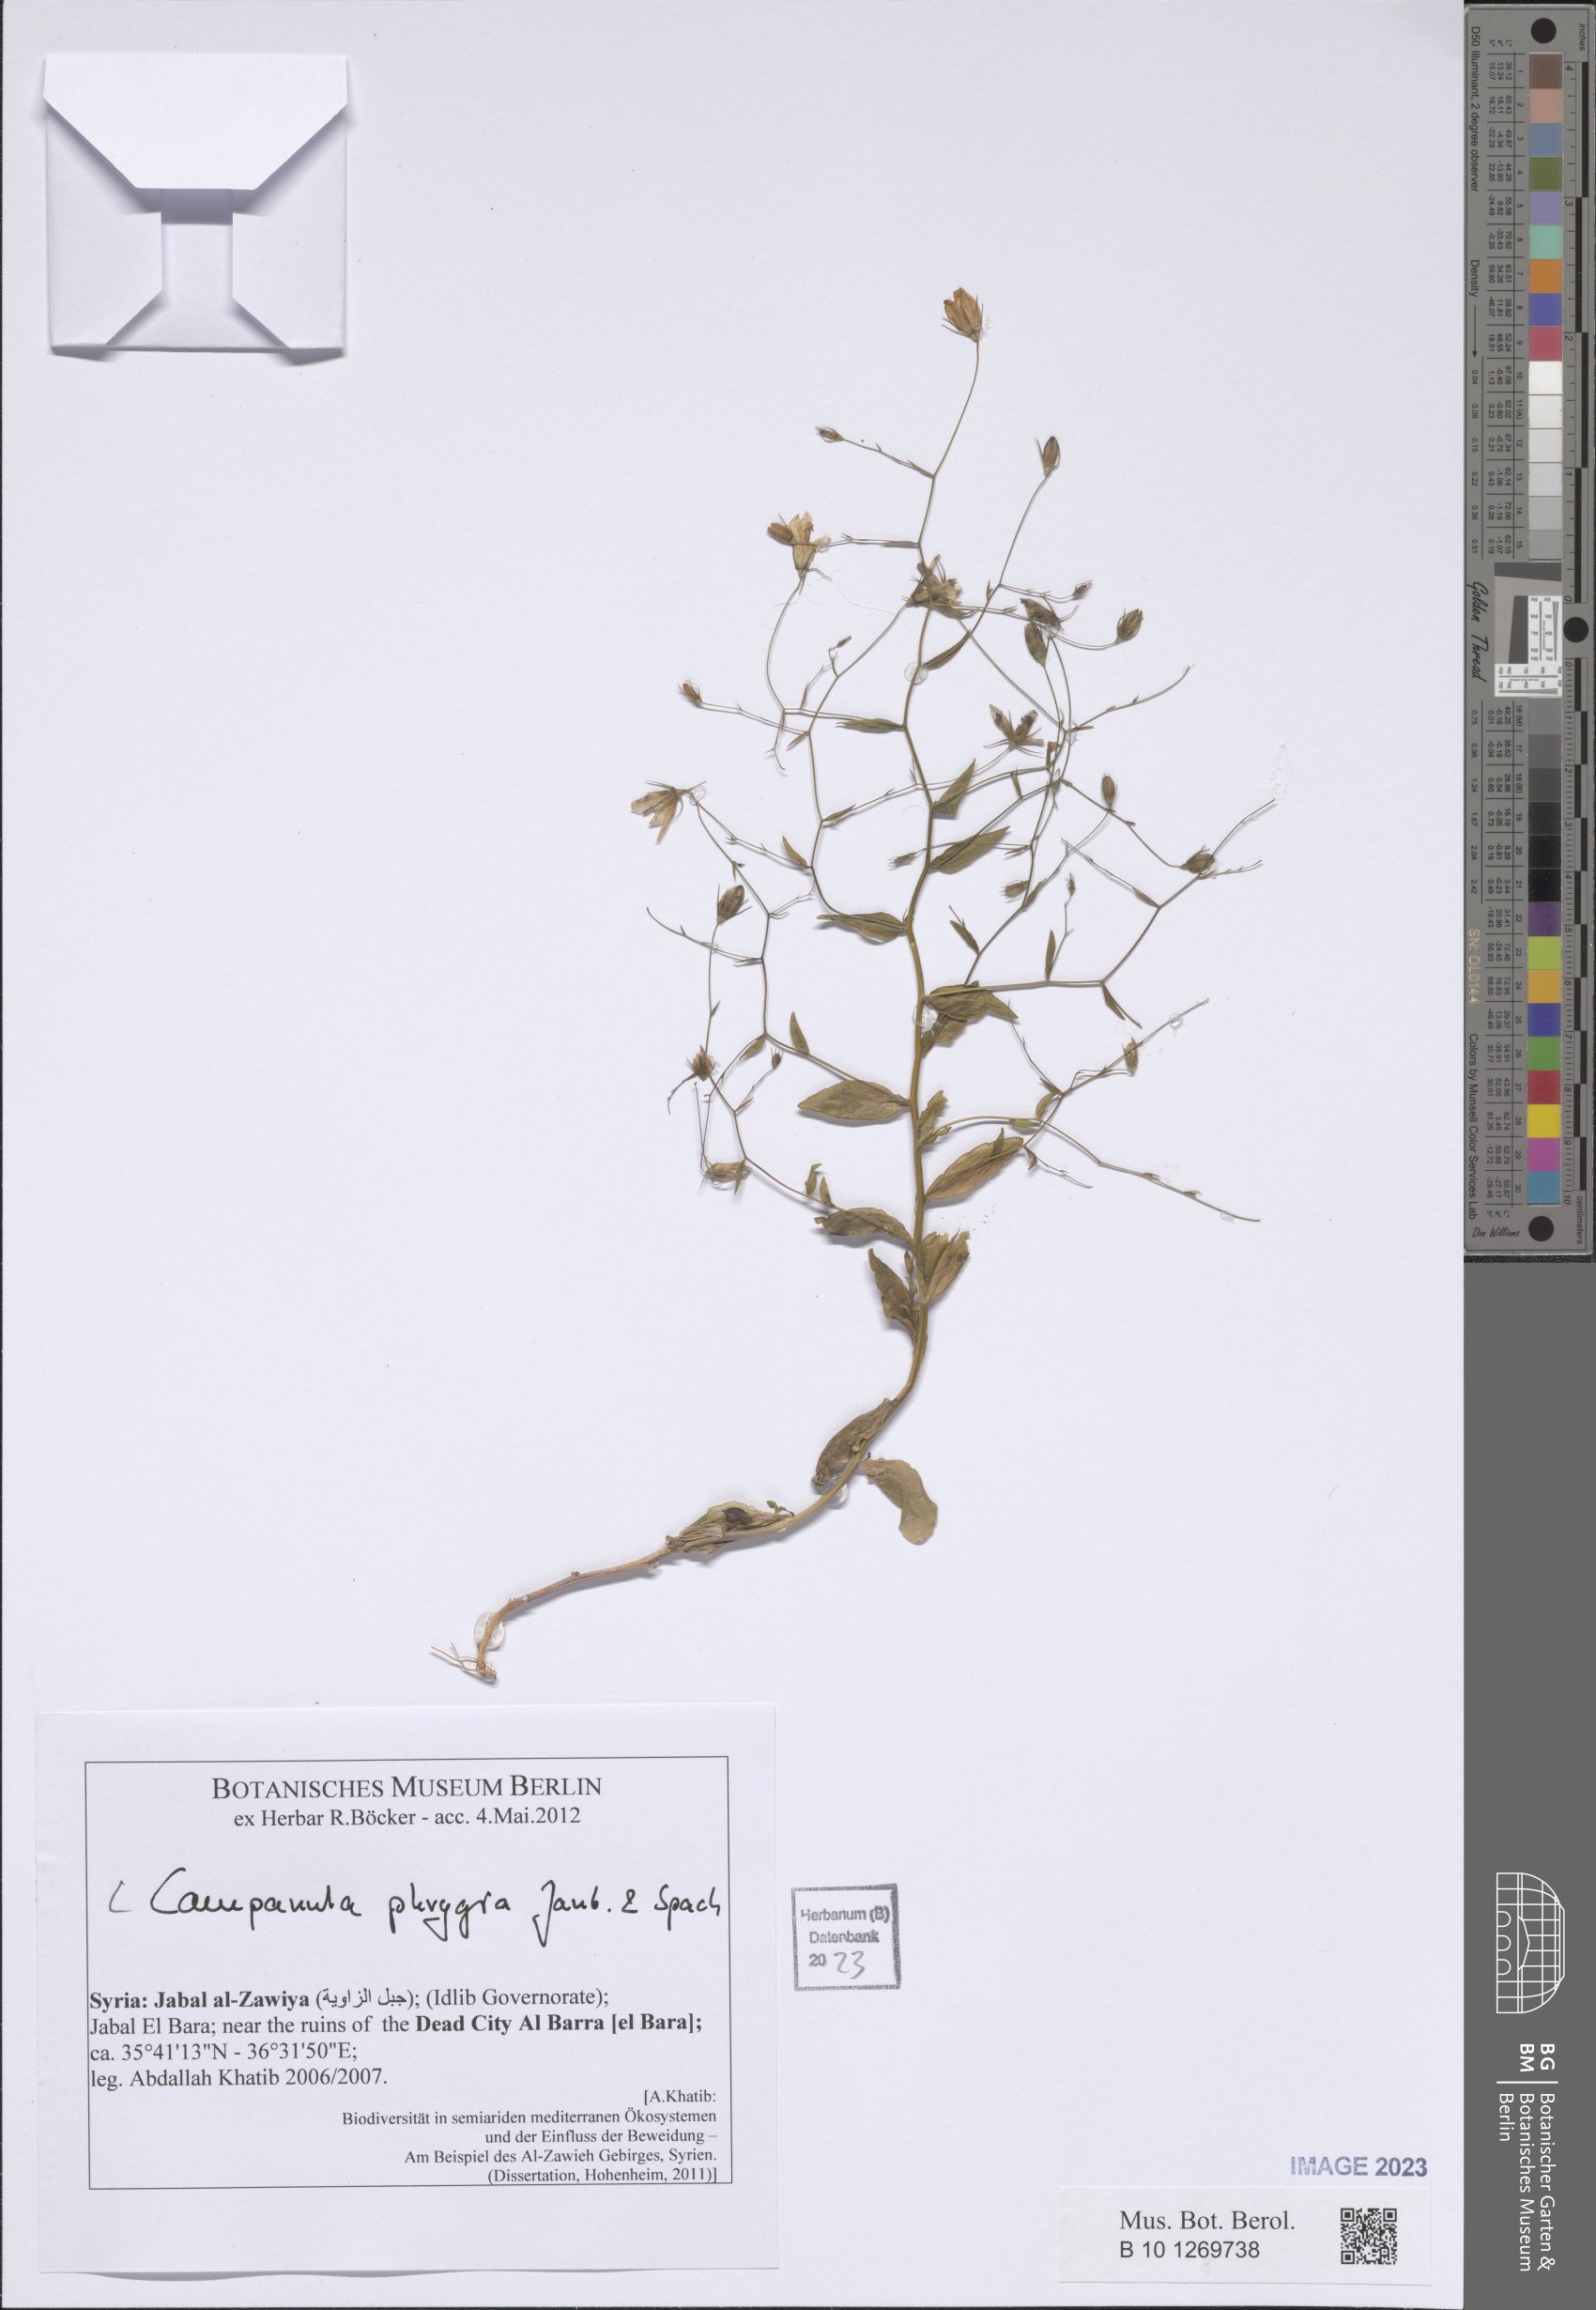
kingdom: Plantae
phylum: Tracheophyta
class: Magnoliopsida
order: Asterales
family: Campanulaceae
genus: Campanula
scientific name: Campanula phrygia
